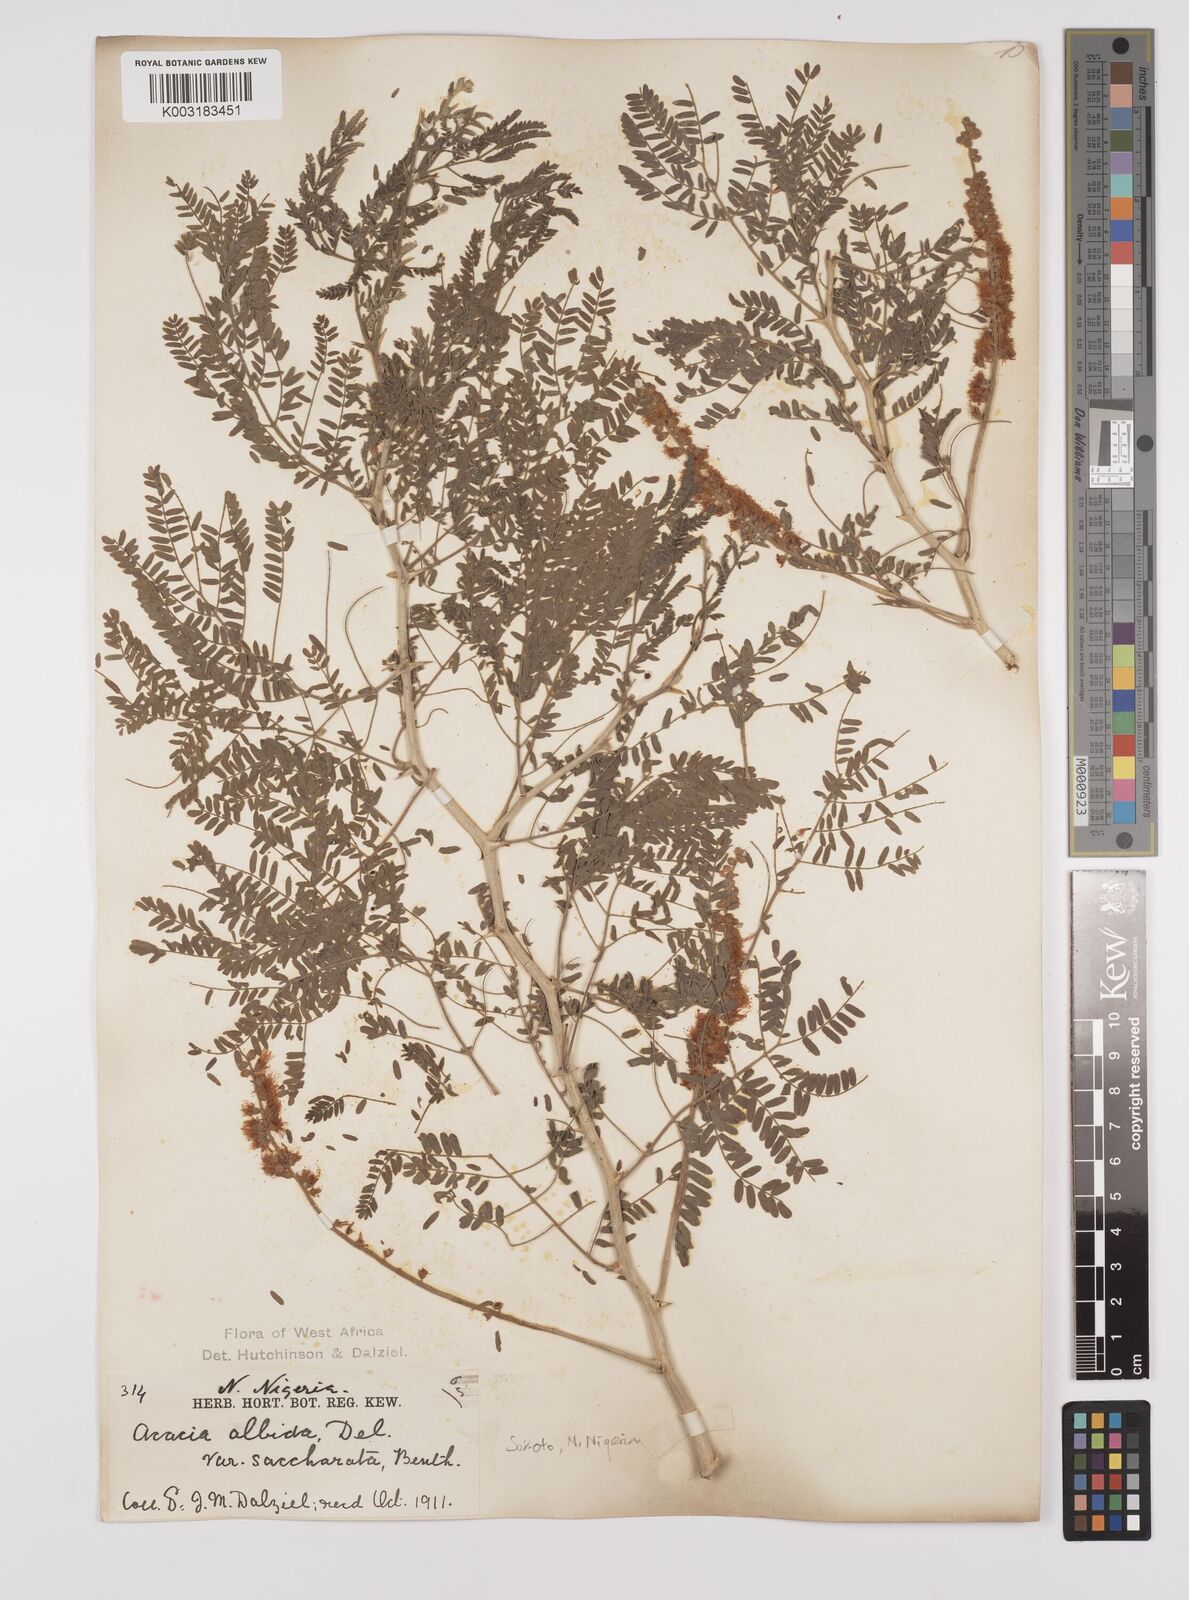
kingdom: Plantae
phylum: Tracheophyta
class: Magnoliopsida
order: Fabales
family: Fabaceae
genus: Faidherbia
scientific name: Faidherbia albida
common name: Anatree
